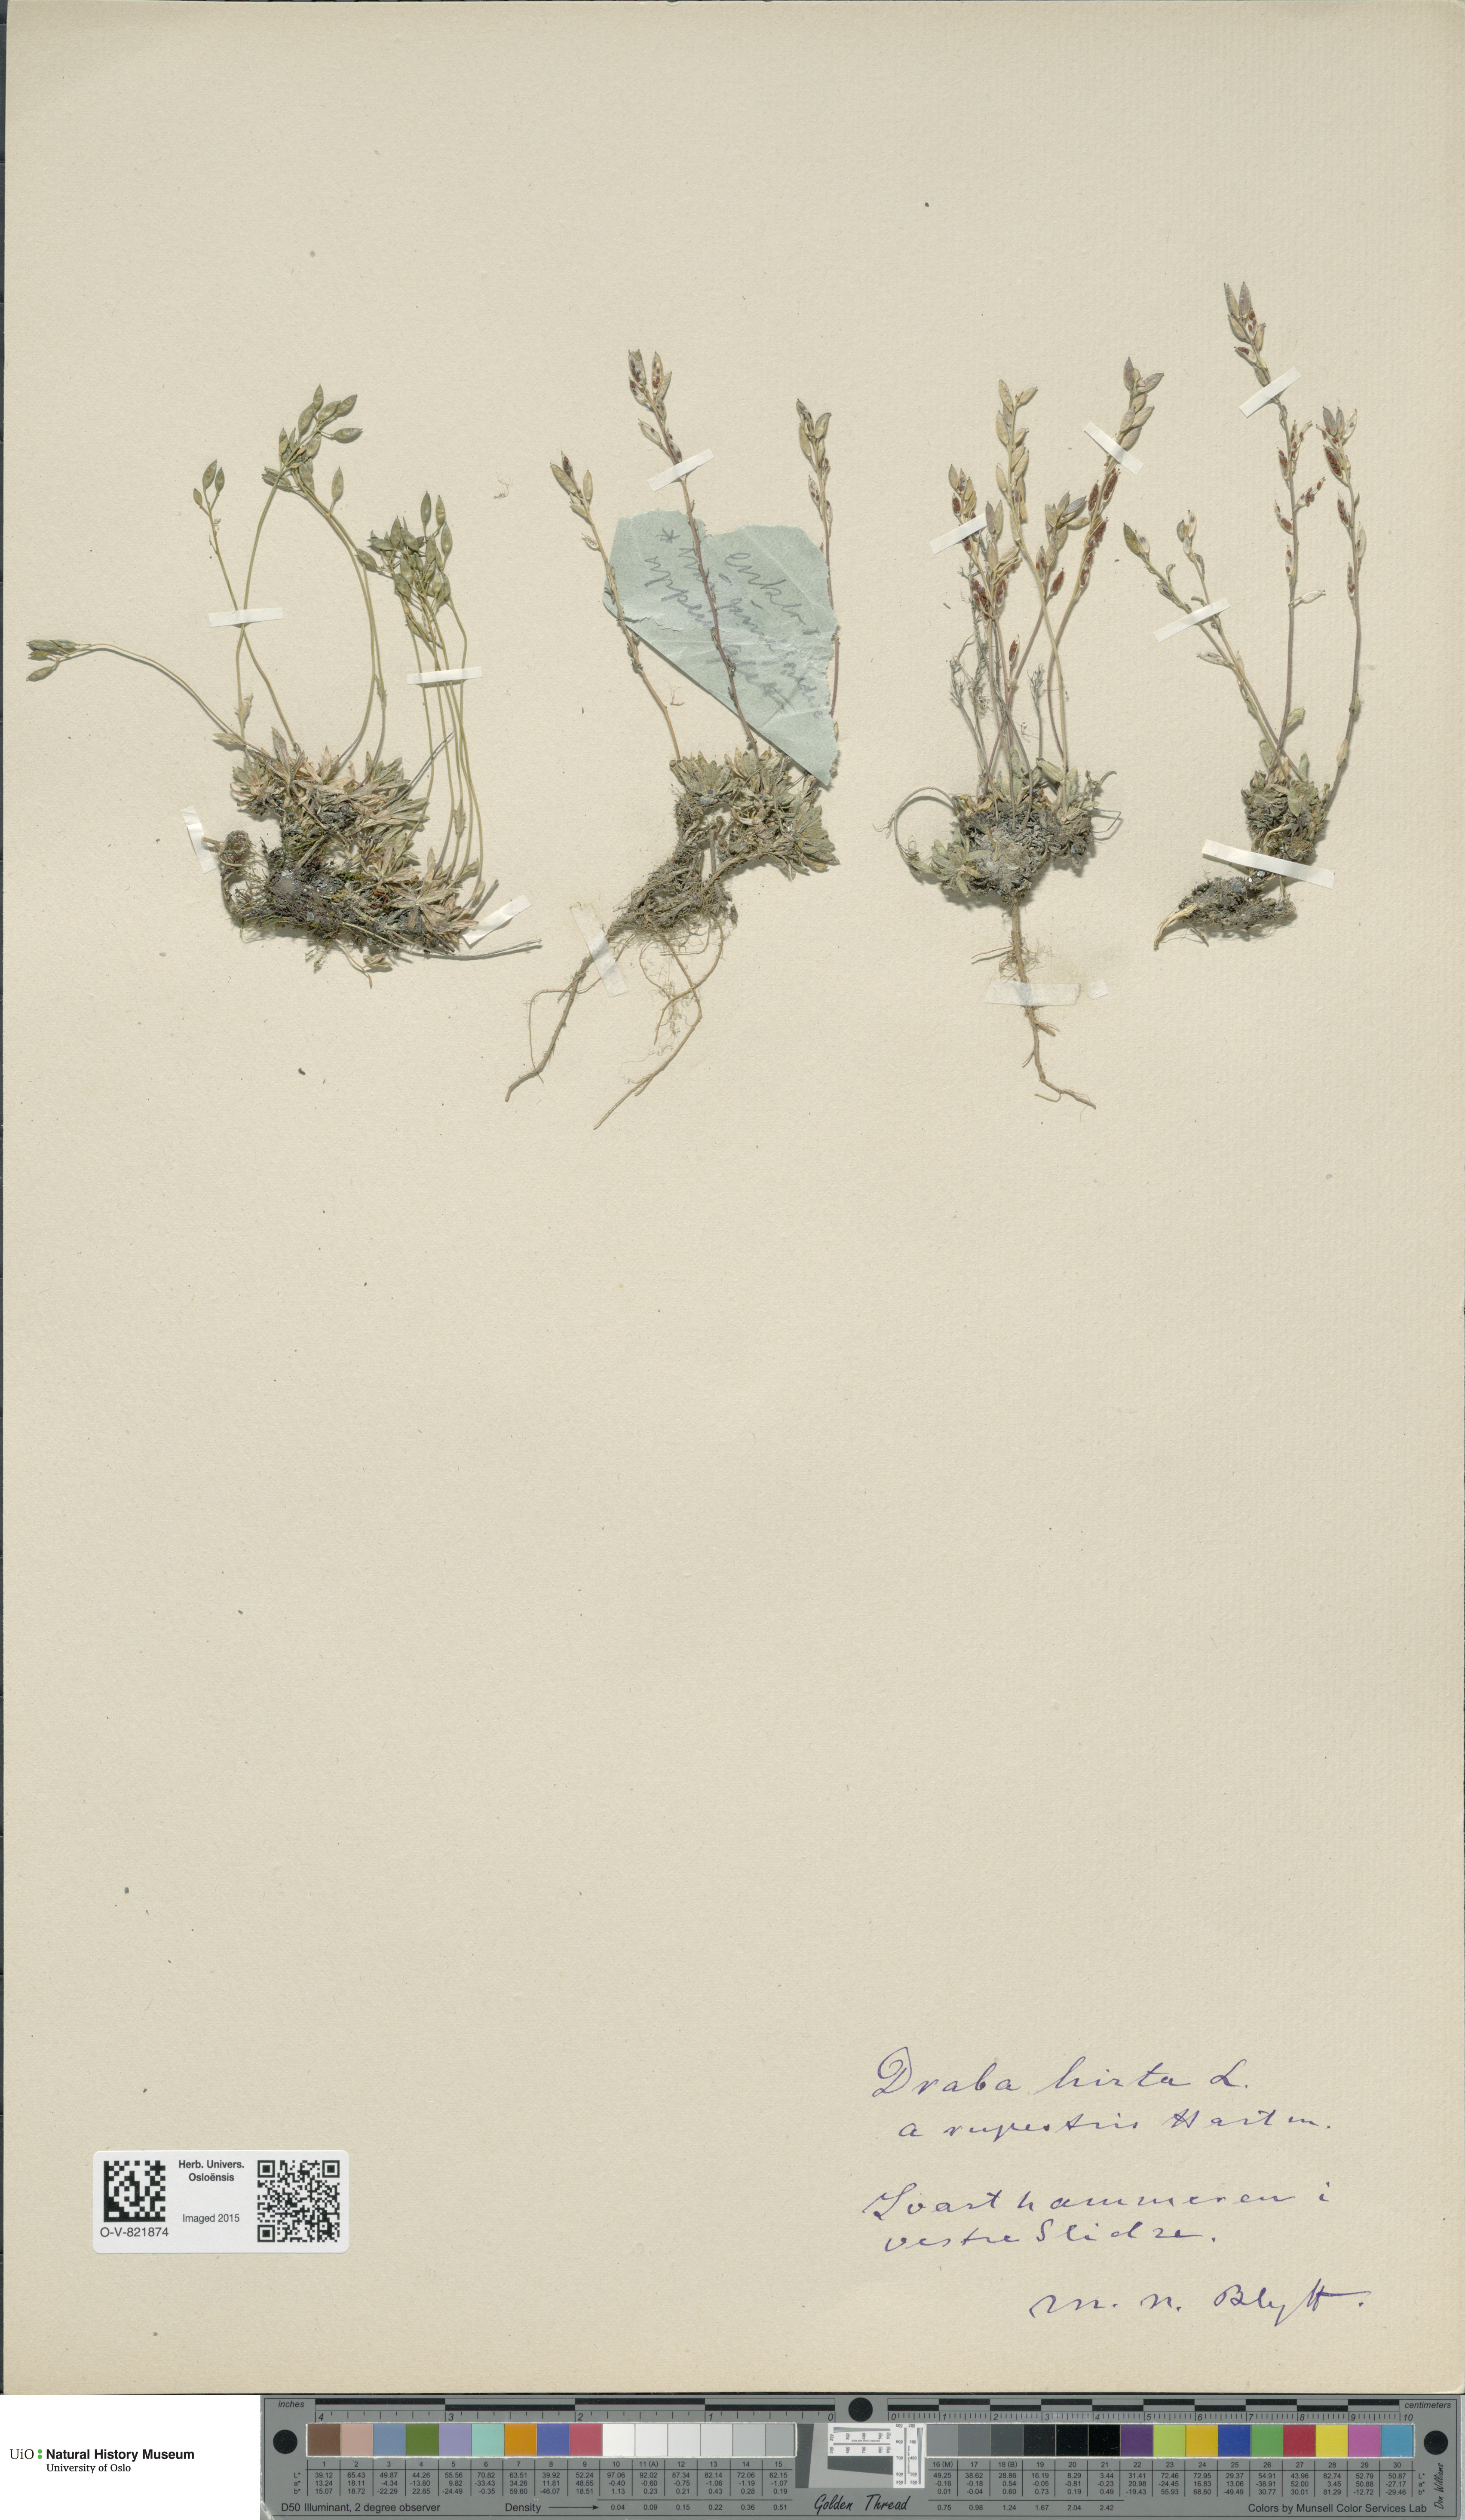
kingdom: Plantae
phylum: Tracheophyta
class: Magnoliopsida
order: Brassicales
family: Brassicaceae
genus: Draba
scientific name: Draba norvegica
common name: Rock whitlowgrass
